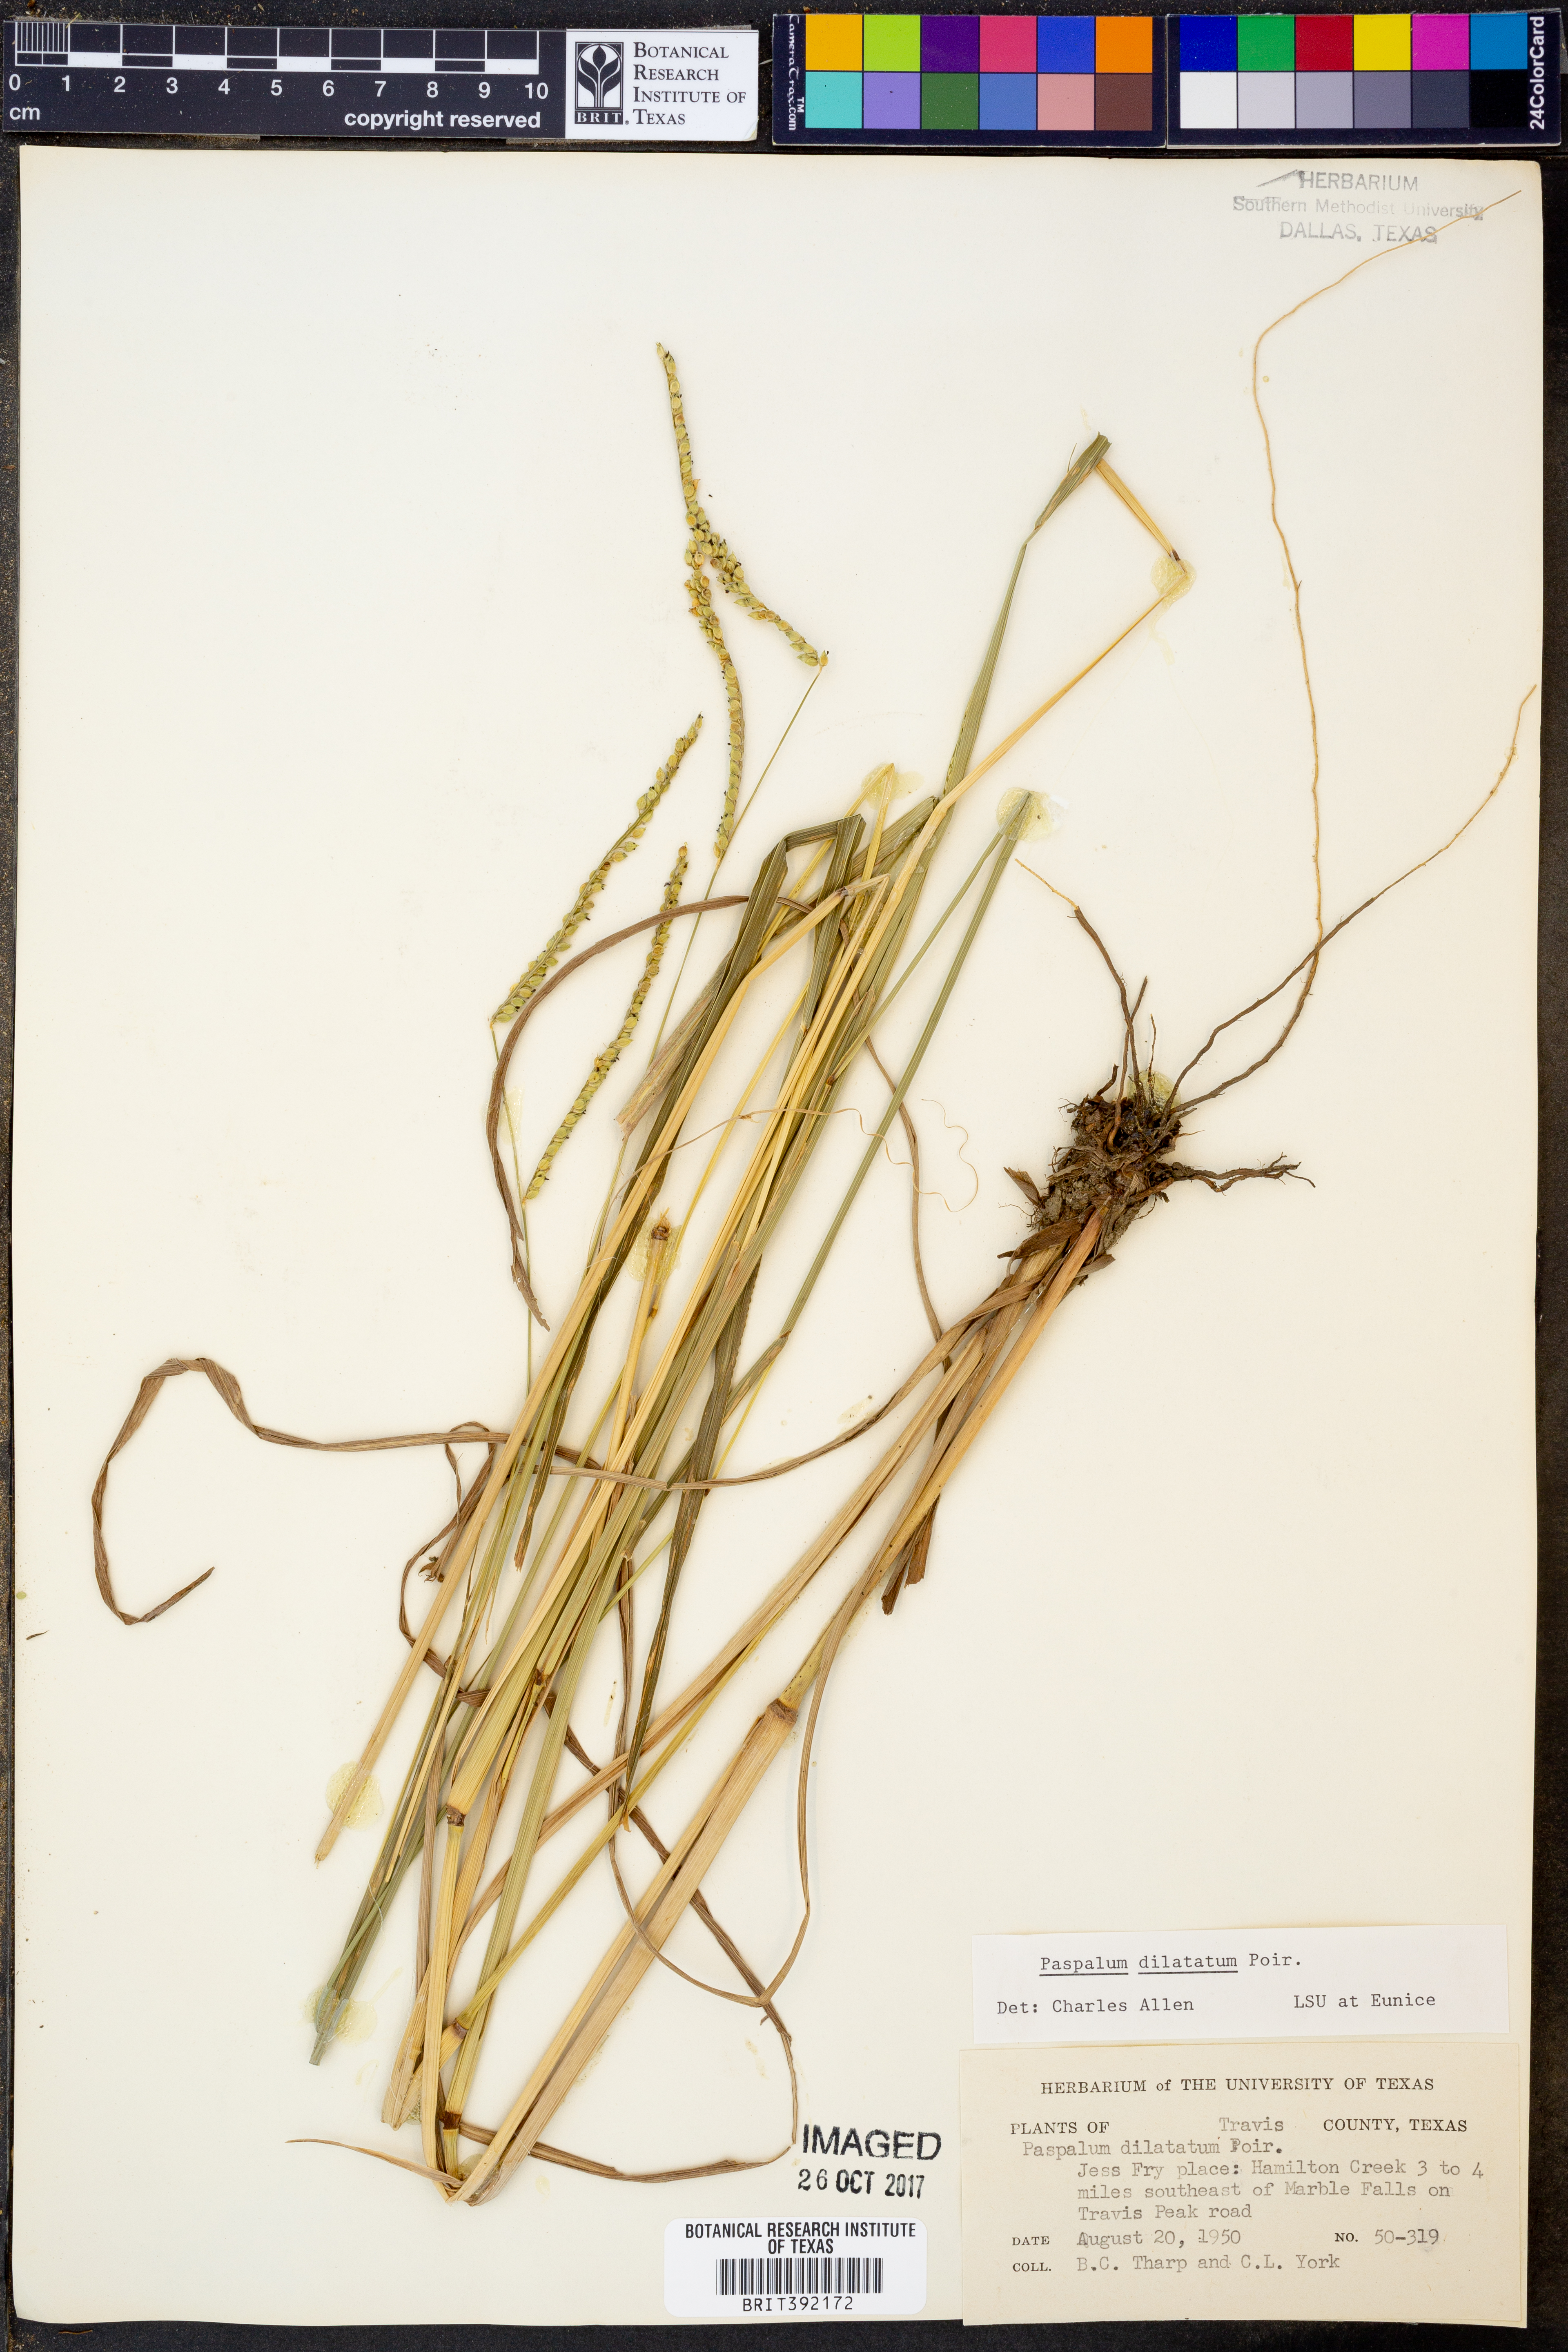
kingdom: Plantae
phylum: Tracheophyta
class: Liliopsida
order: Poales
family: Poaceae
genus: Paspalum
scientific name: Paspalum dilatatum
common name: Dallisgrass
